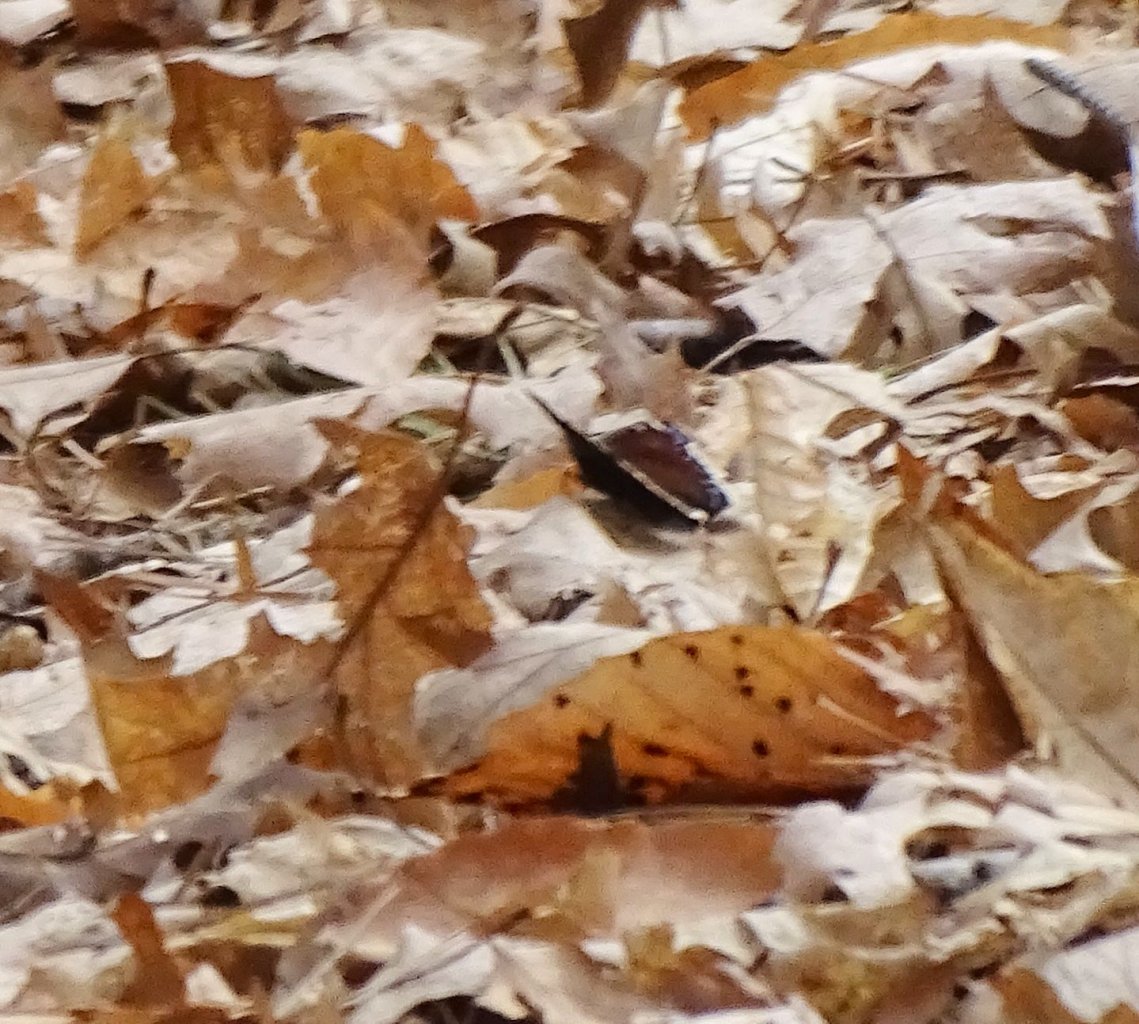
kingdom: Animalia
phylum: Arthropoda
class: Insecta
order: Lepidoptera
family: Nymphalidae
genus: Nymphalis
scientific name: Nymphalis antiopa
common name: Mourning Cloak
